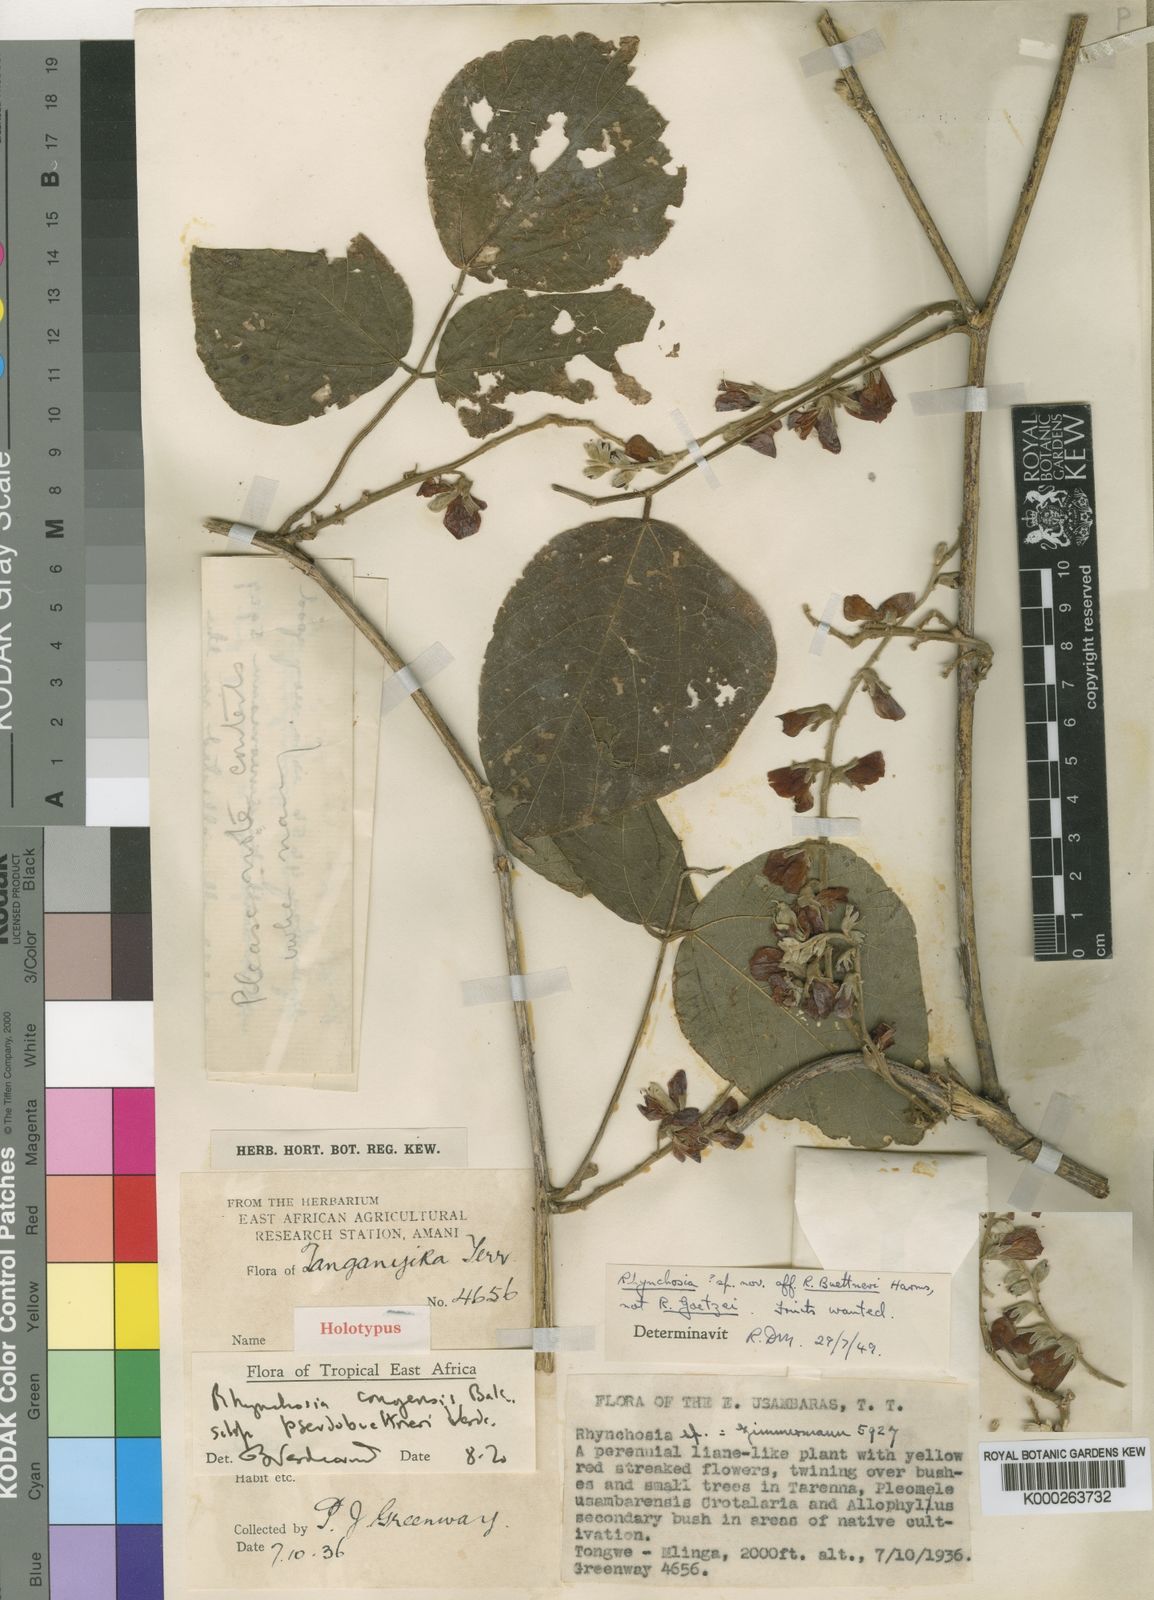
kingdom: Plantae
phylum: Tracheophyta
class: Magnoliopsida
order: Fabales
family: Fabaceae
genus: Rhynchosia
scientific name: Rhynchosia congensis
